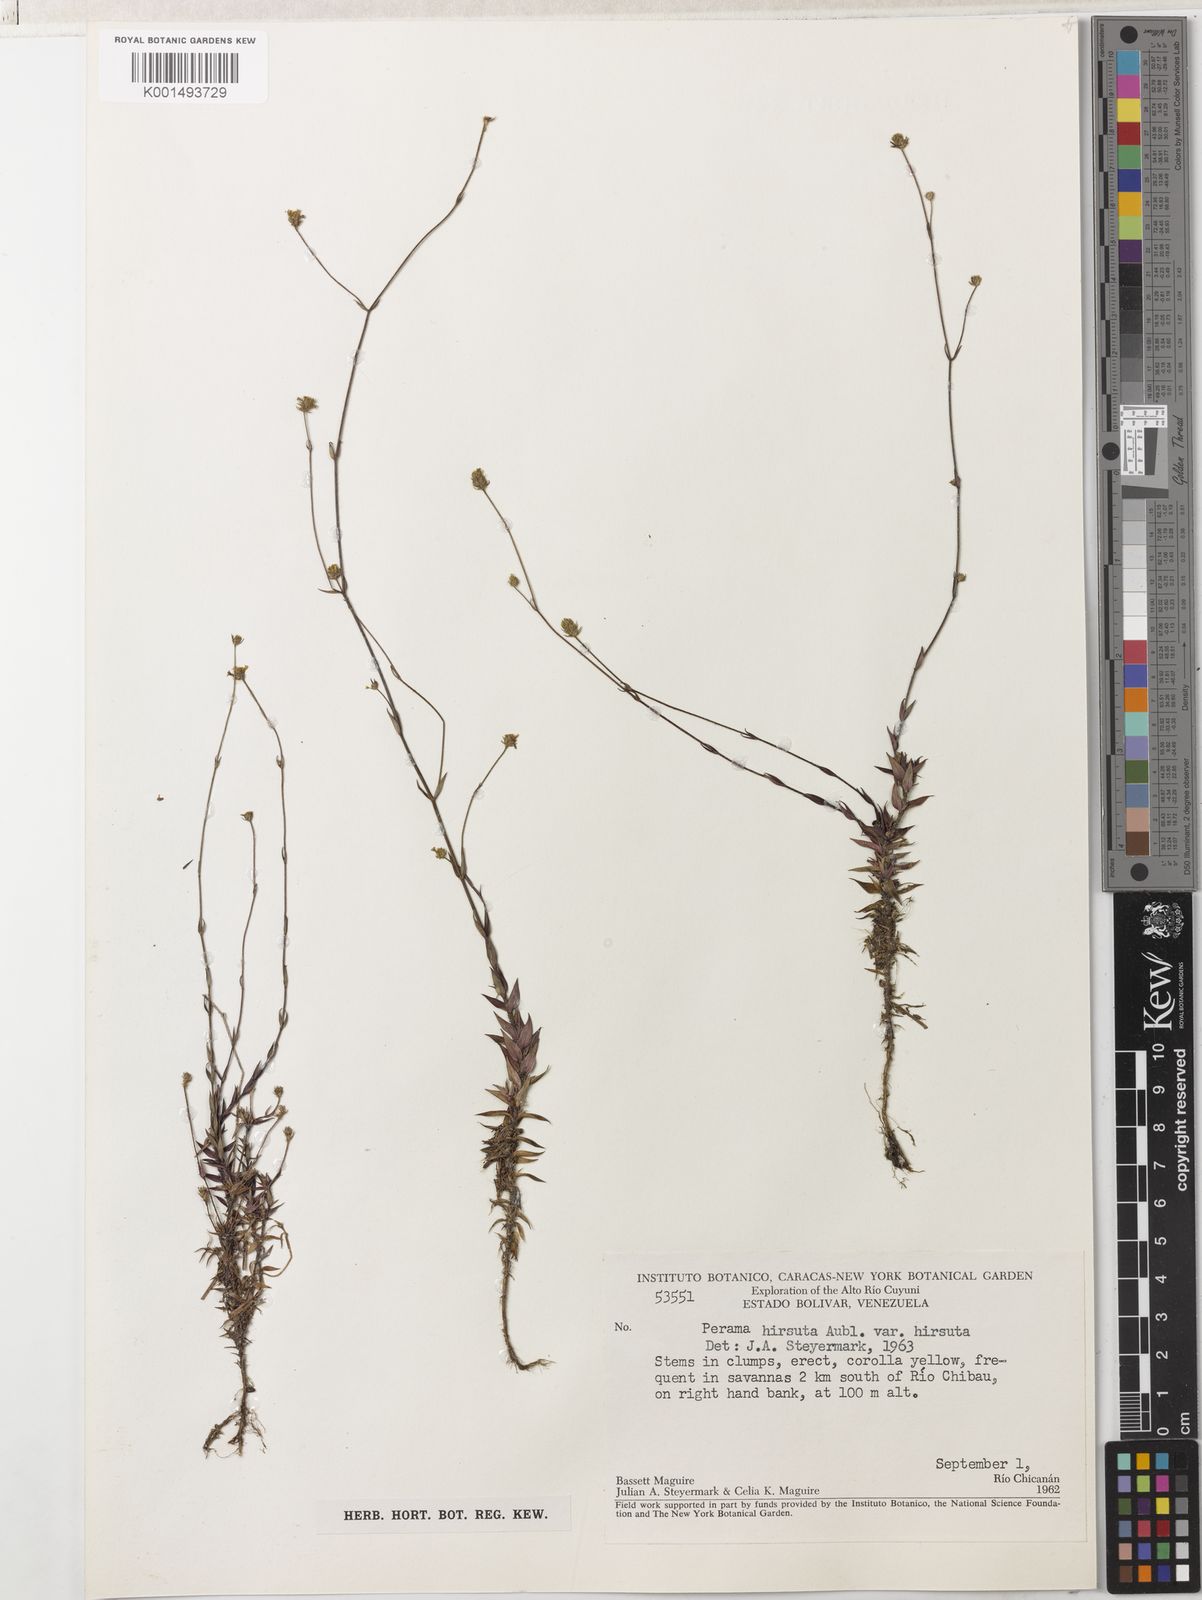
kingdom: Plantae
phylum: Tracheophyta
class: Magnoliopsida
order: Gentianales
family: Rubiaceae
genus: Perama
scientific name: Perama hirsuta
